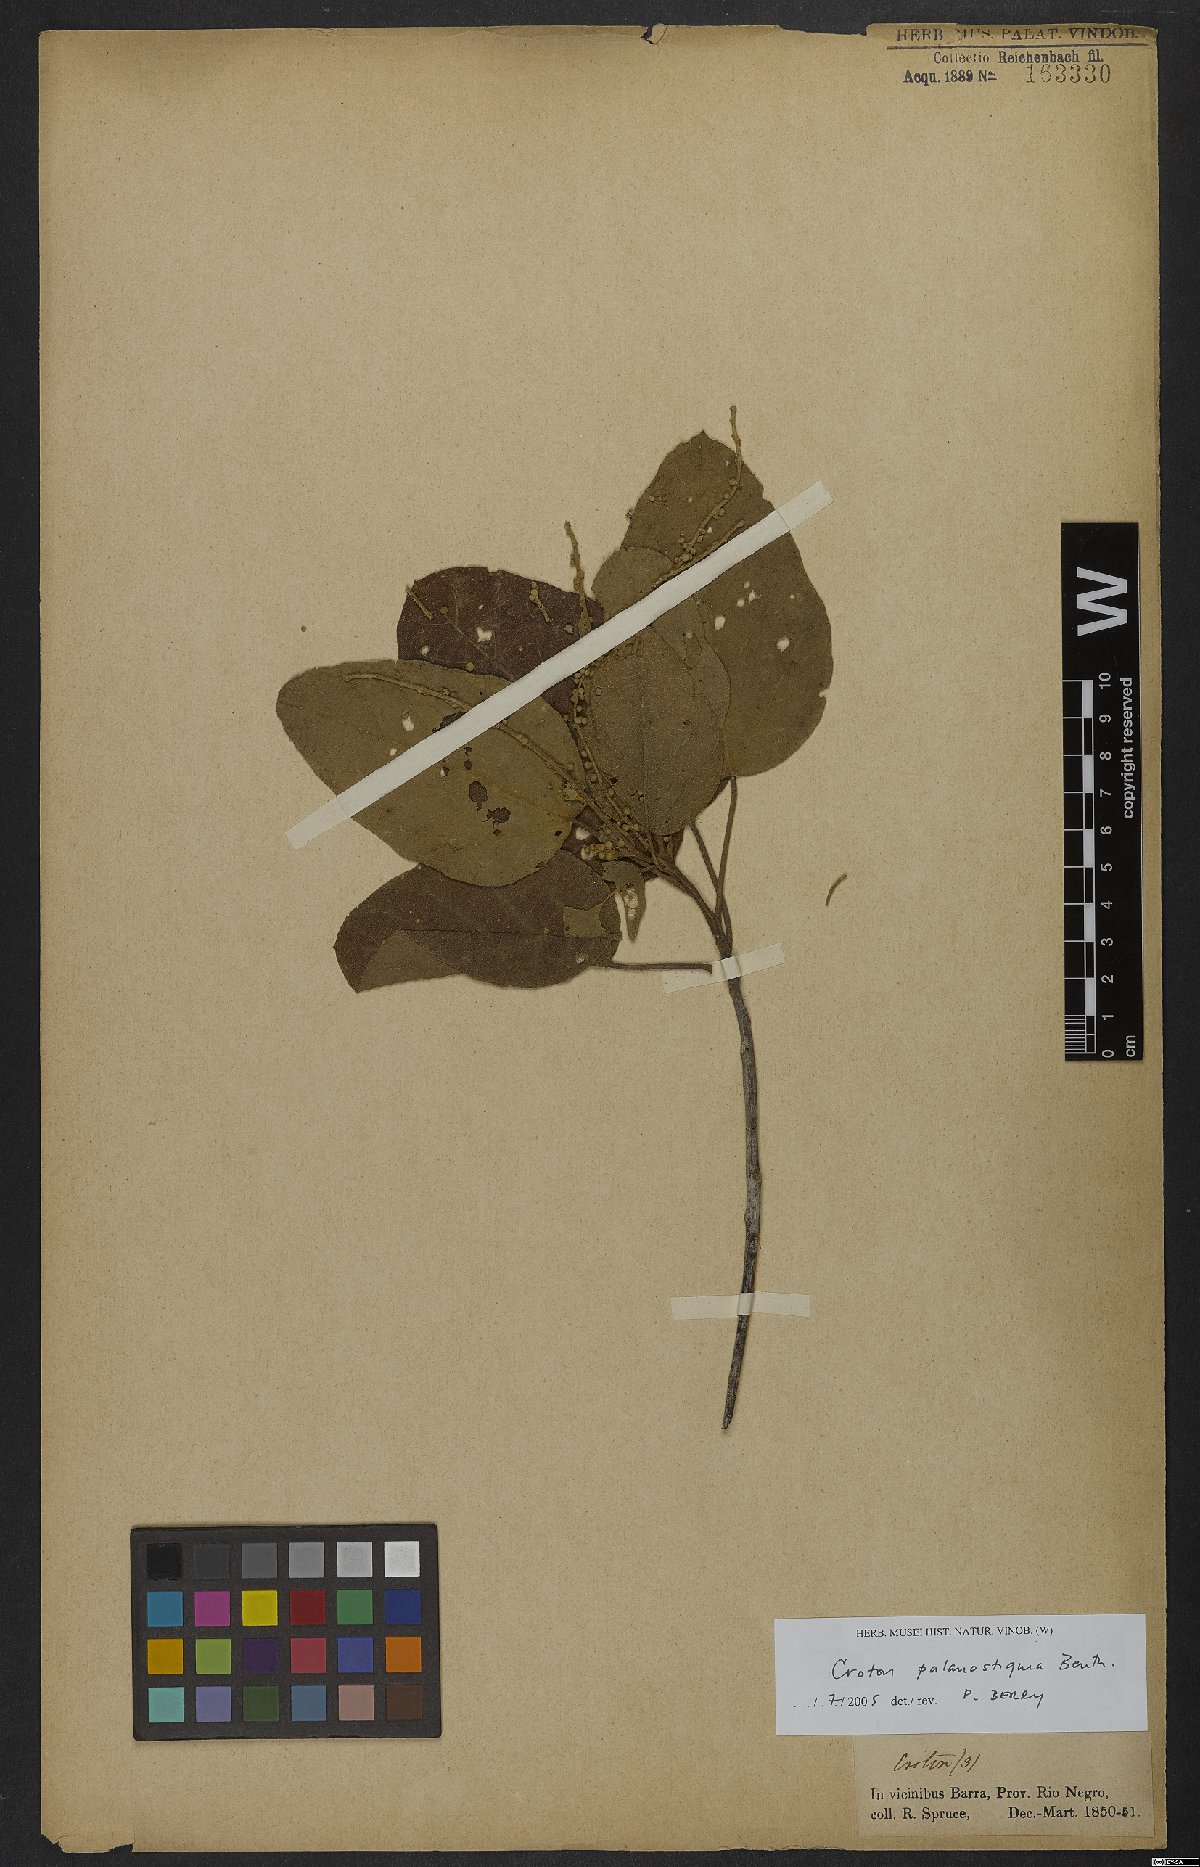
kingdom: Plantae
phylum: Tracheophyta
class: Magnoliopsida
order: Malpighiales
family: Euphorbiaceae
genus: Croton
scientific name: Croton palanostigma
